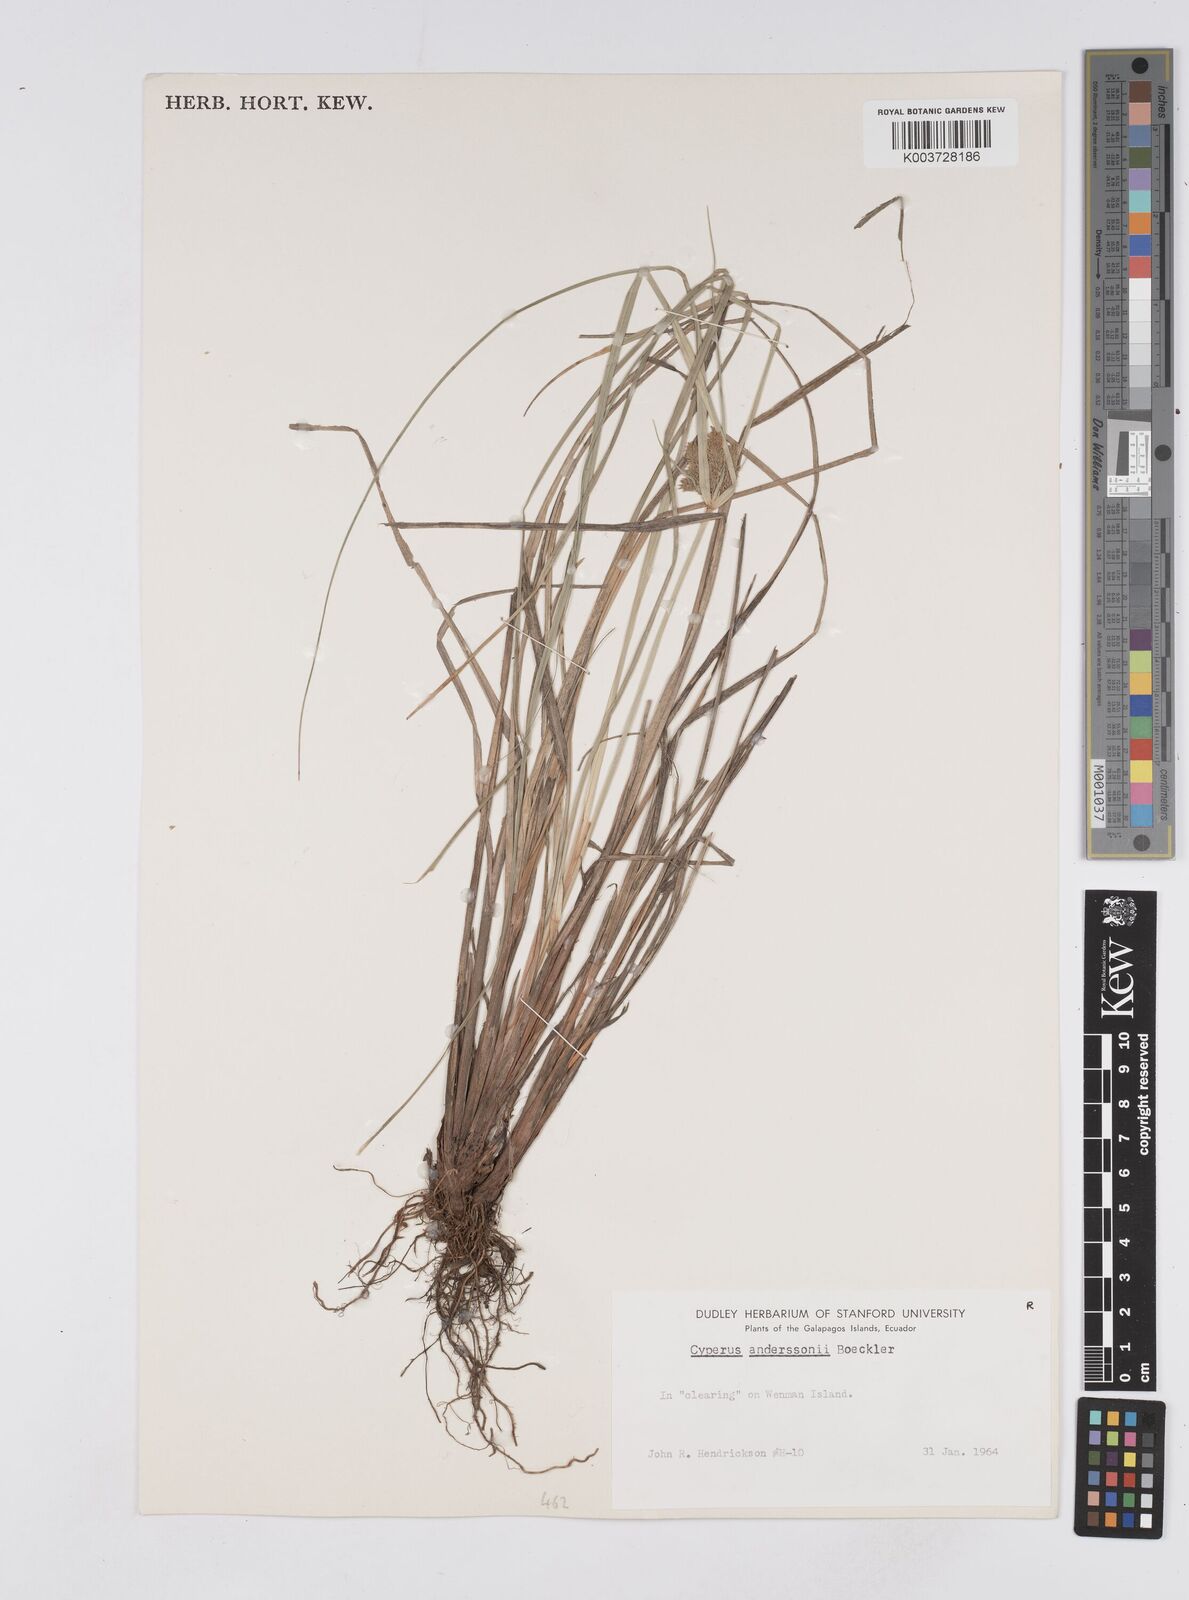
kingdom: Plantae
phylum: Tracheophyta
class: Liliopsida
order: Poales
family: Cyperaceae
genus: Cyperus
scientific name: Cyperus anderssonii
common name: Andersson's sedge
